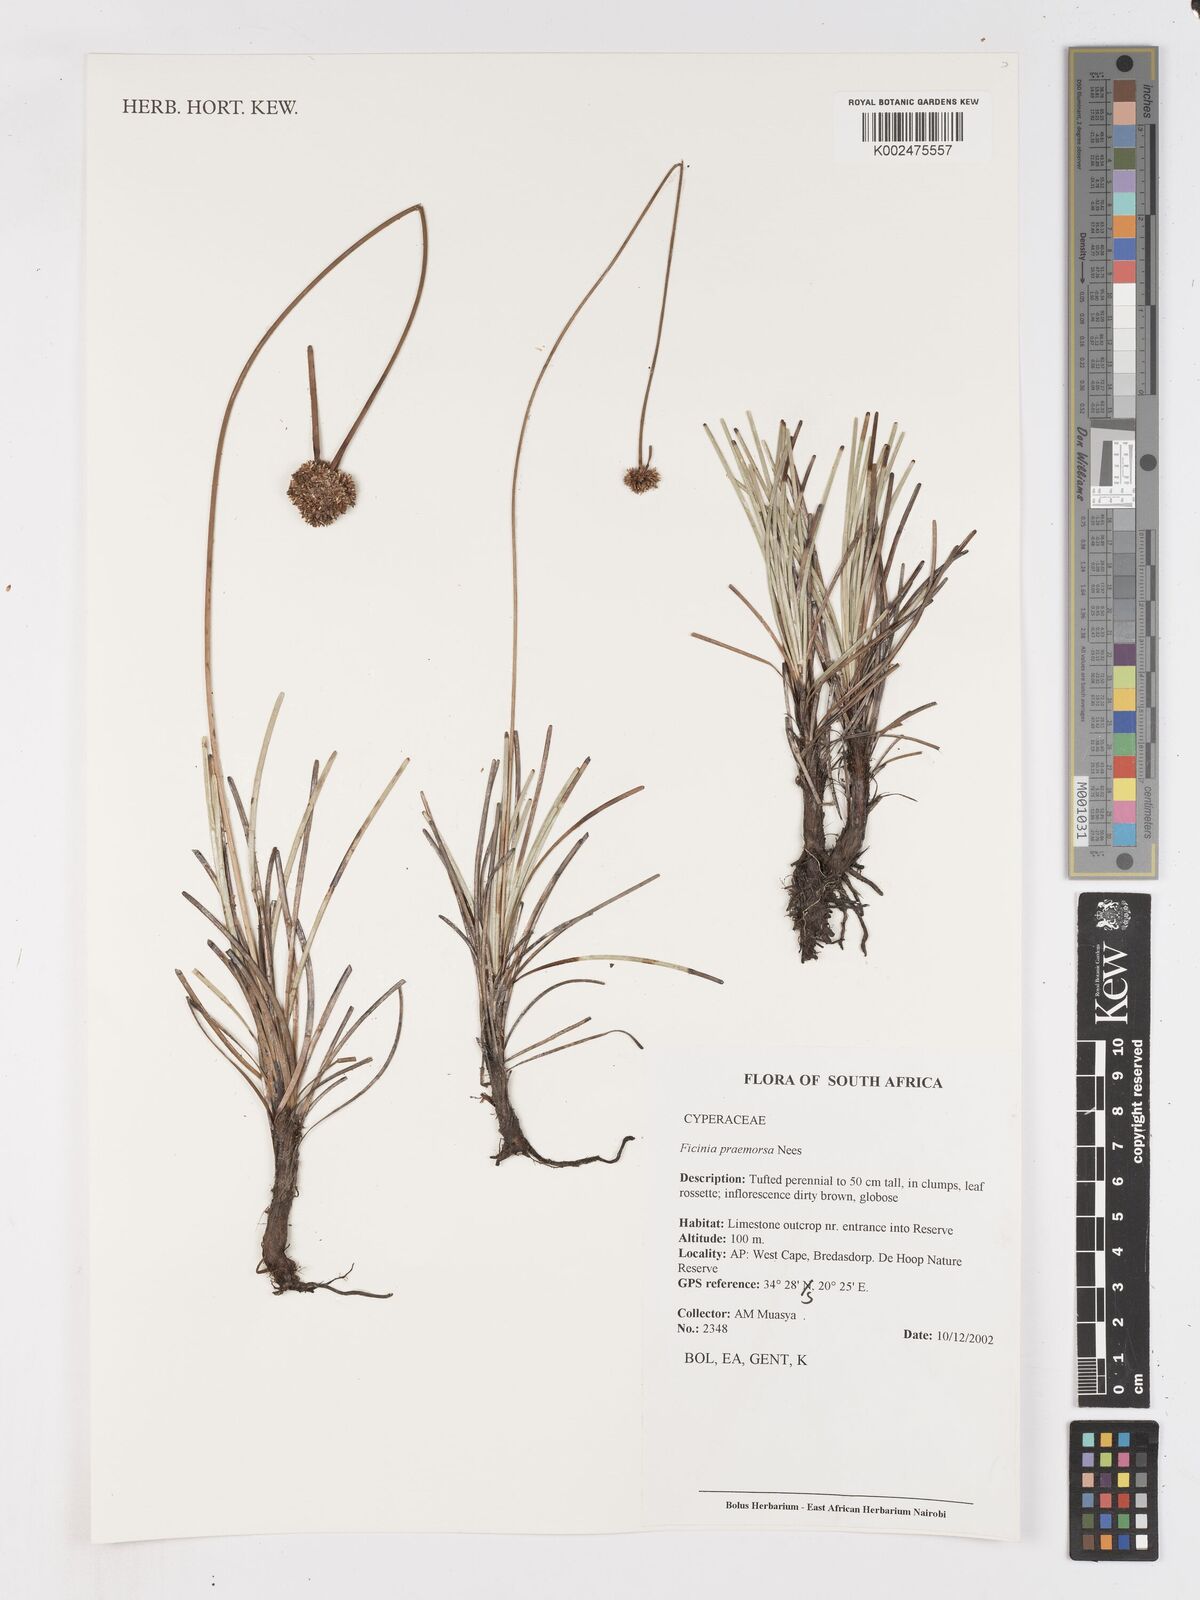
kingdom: Plantae
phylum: Tracheophyta
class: Liliopsida
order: Poales
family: Cyperaceae
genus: Ficinia
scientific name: Ficinia praemorsa
